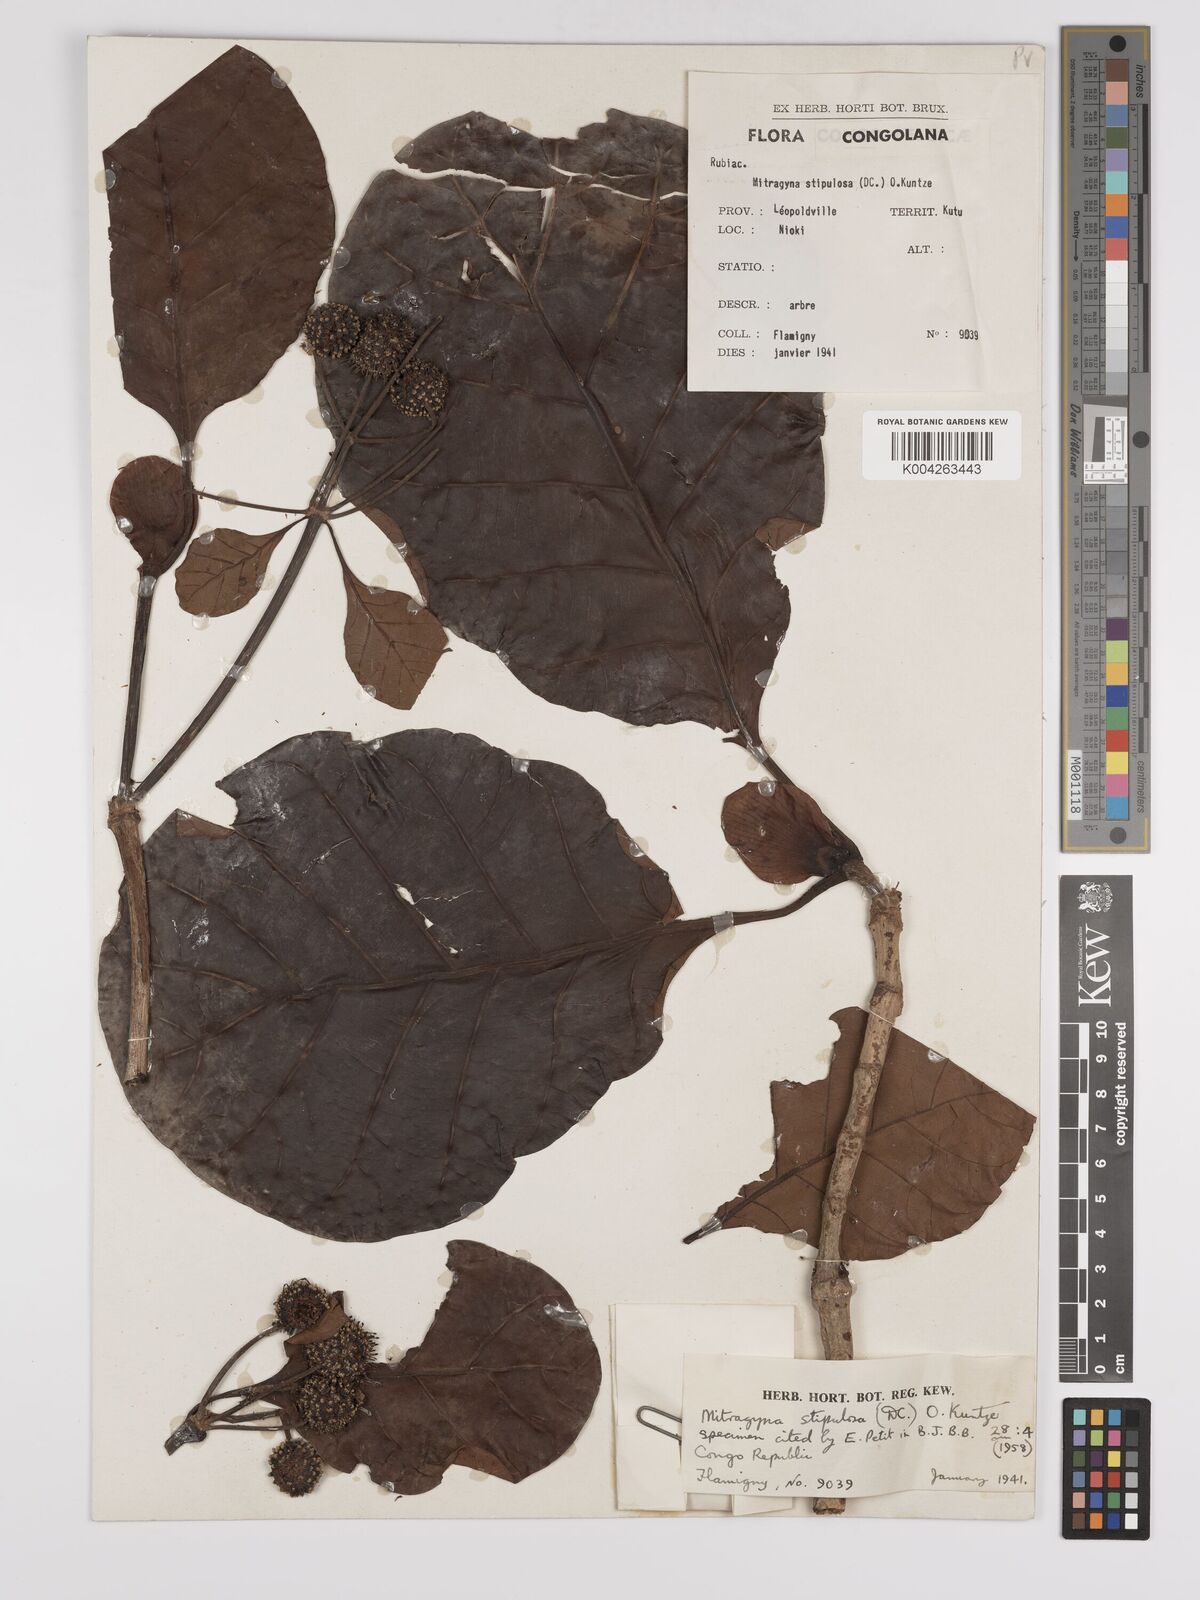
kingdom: Plantae
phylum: Tracheophyta
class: Magnoliopsida
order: Gentianales
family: Rubiaceae
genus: Mitragyna
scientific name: Mitragyna stipulosa
